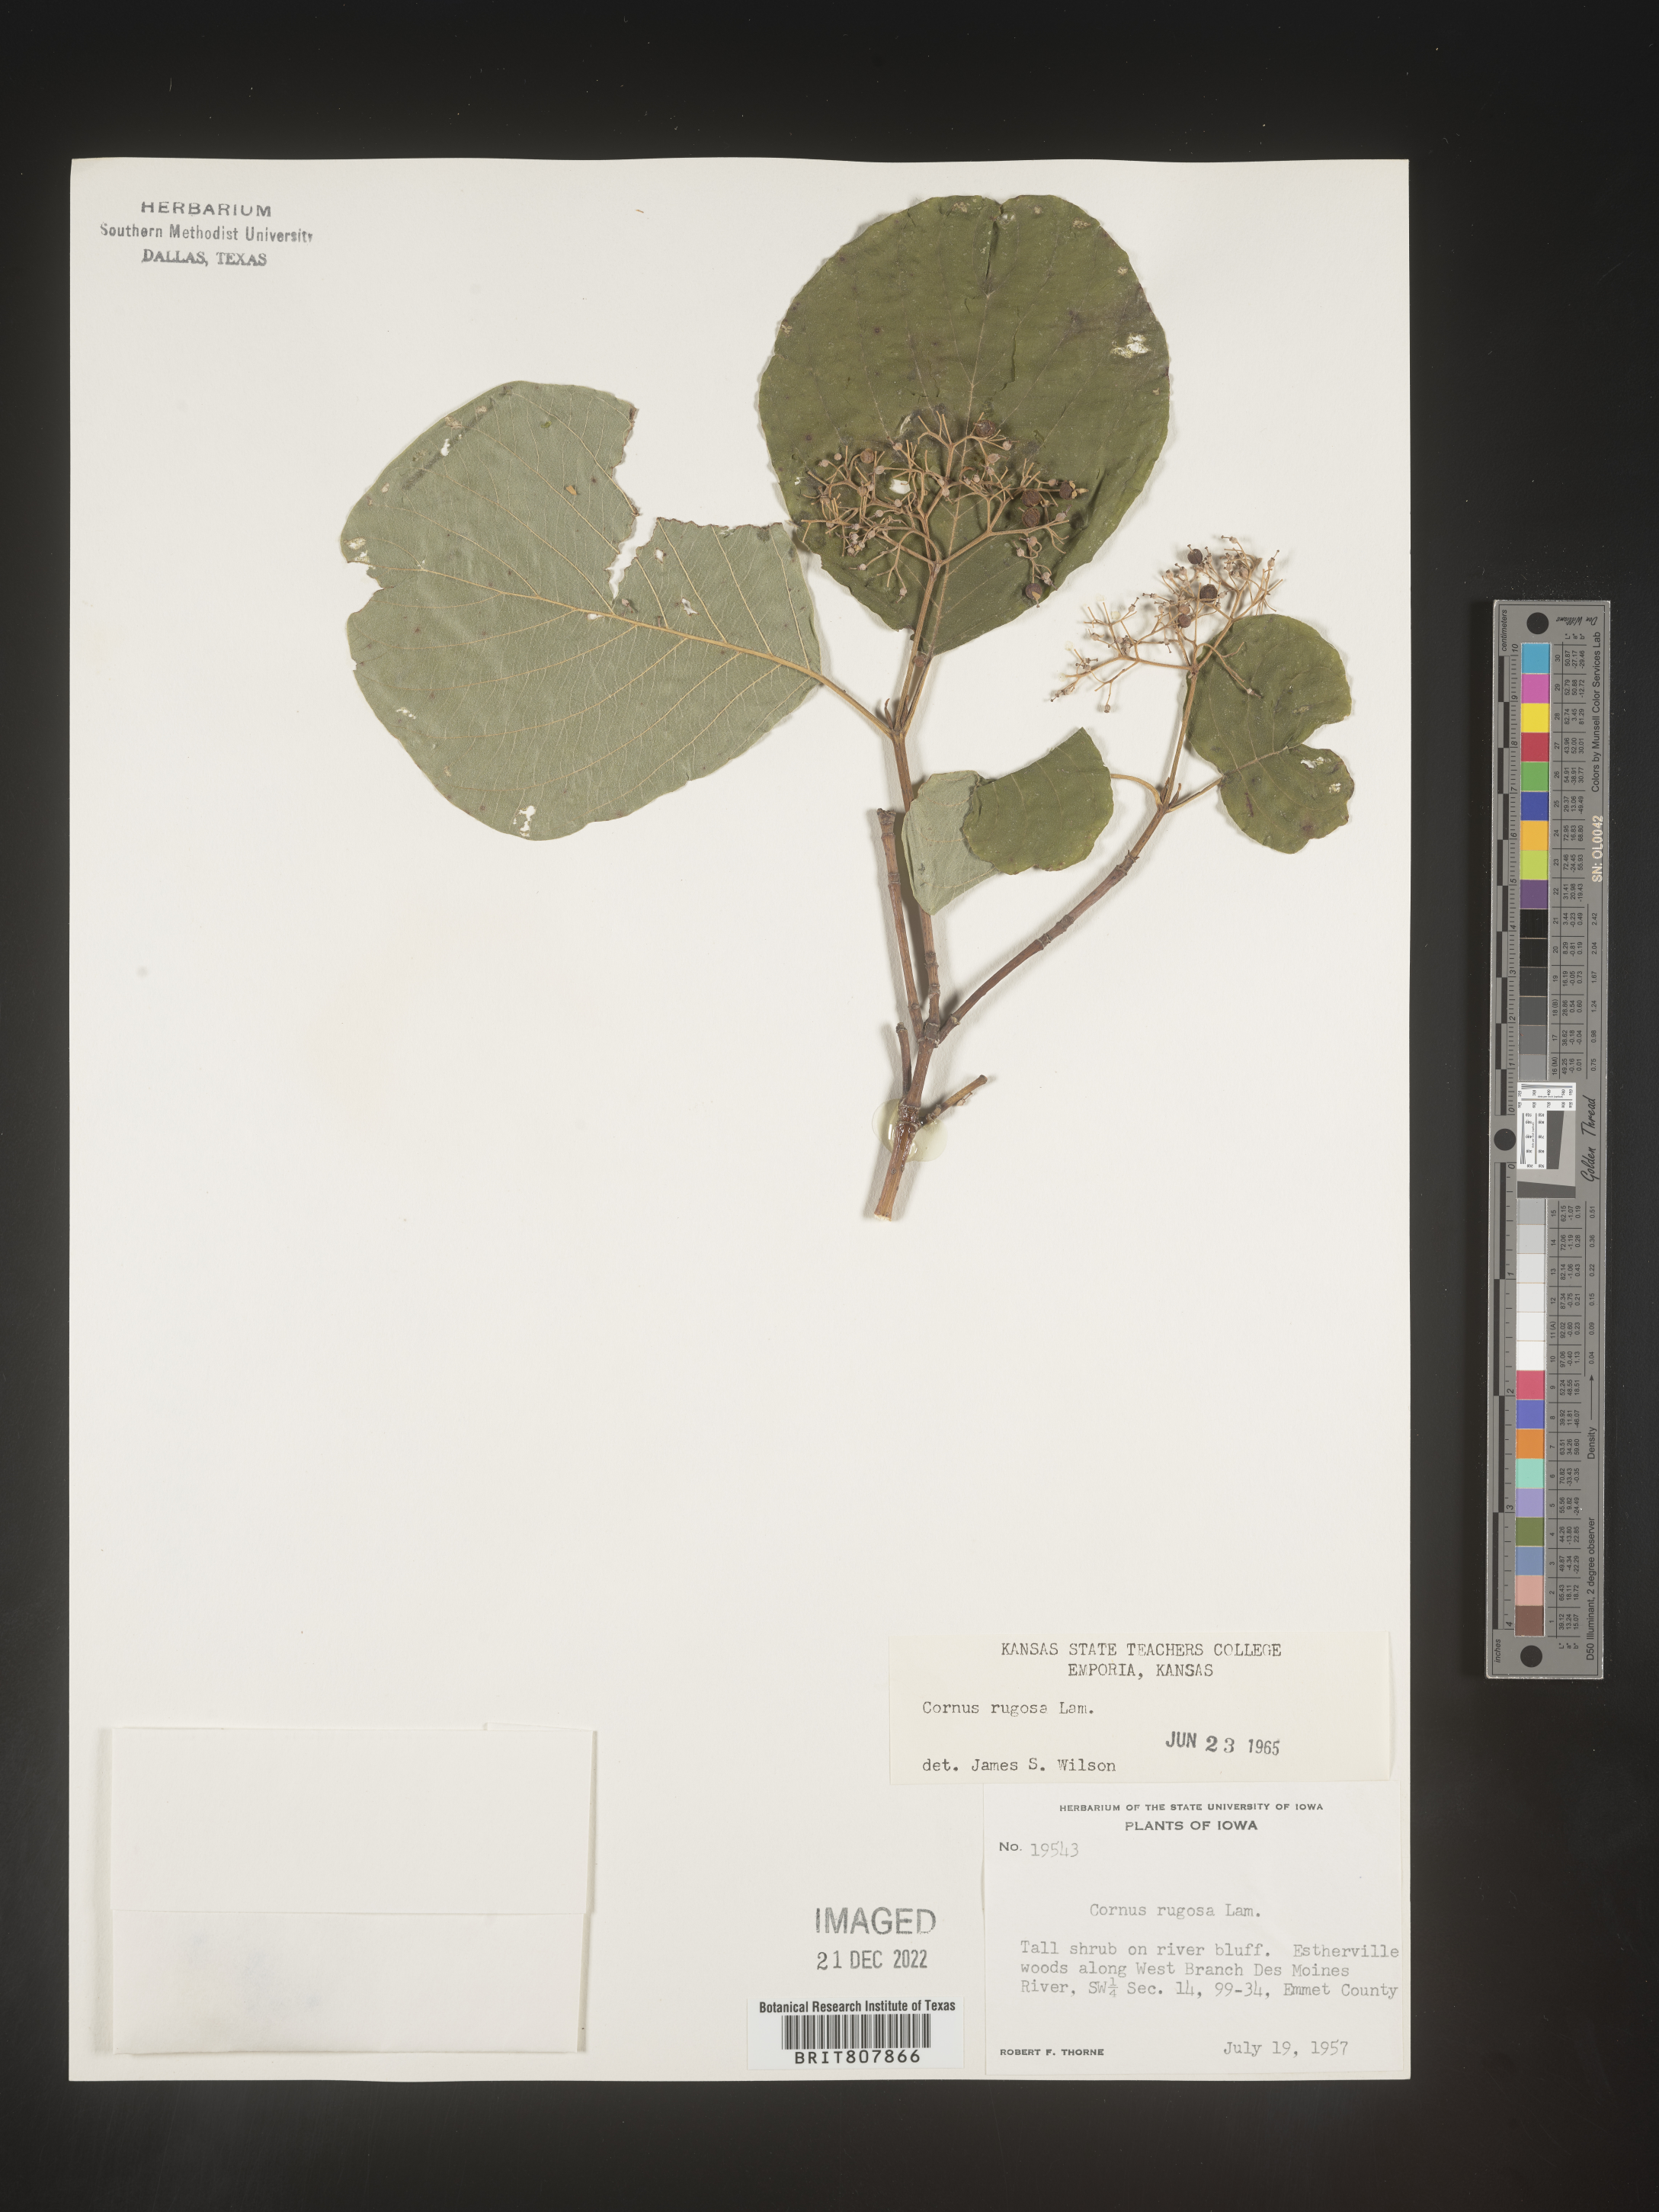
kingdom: Plantae
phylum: Tracheophyta
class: Magnoliopsida
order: Cornales
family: Cornaceae
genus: Cornus
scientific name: Cornus rugosa
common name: Round-leaf dogwood
